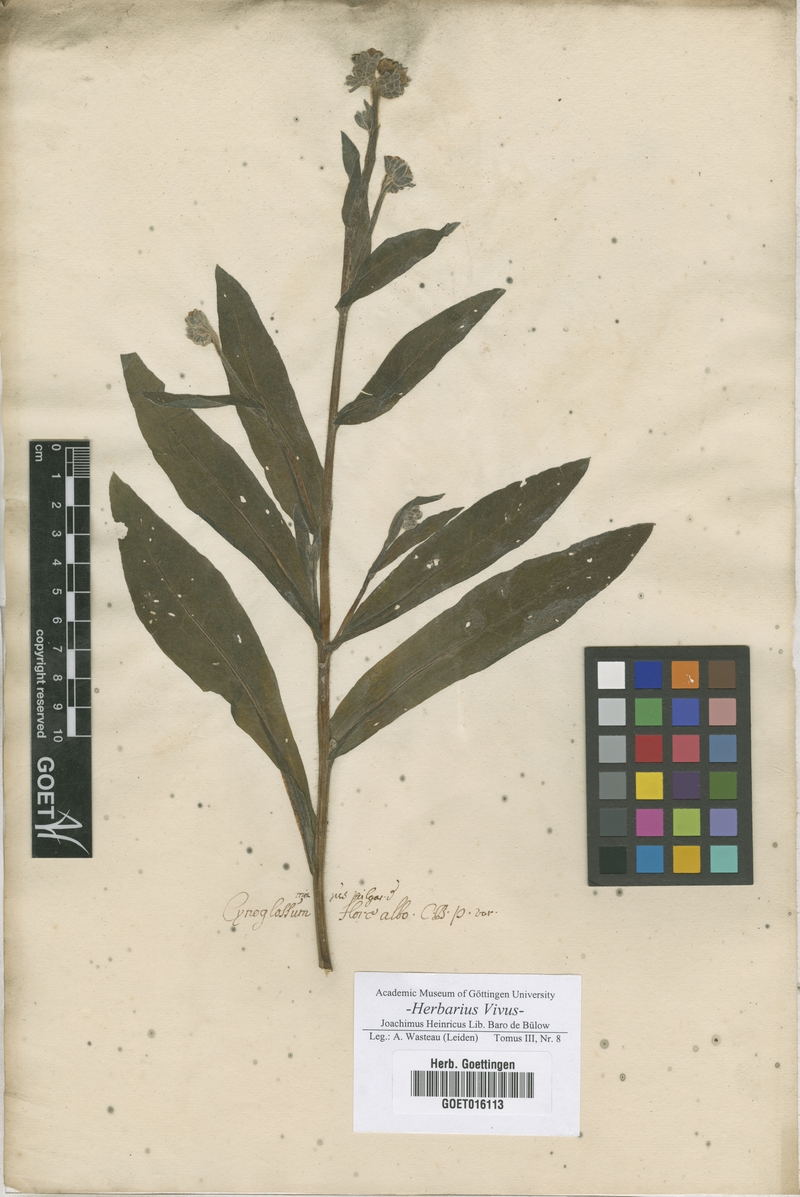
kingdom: Plantae
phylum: Tracheophyta
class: Magnoliopsida
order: Boraginales
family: Boraginaceae
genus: Cynoglossum
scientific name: Cynoglossum officinale
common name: Hound's-tongue
